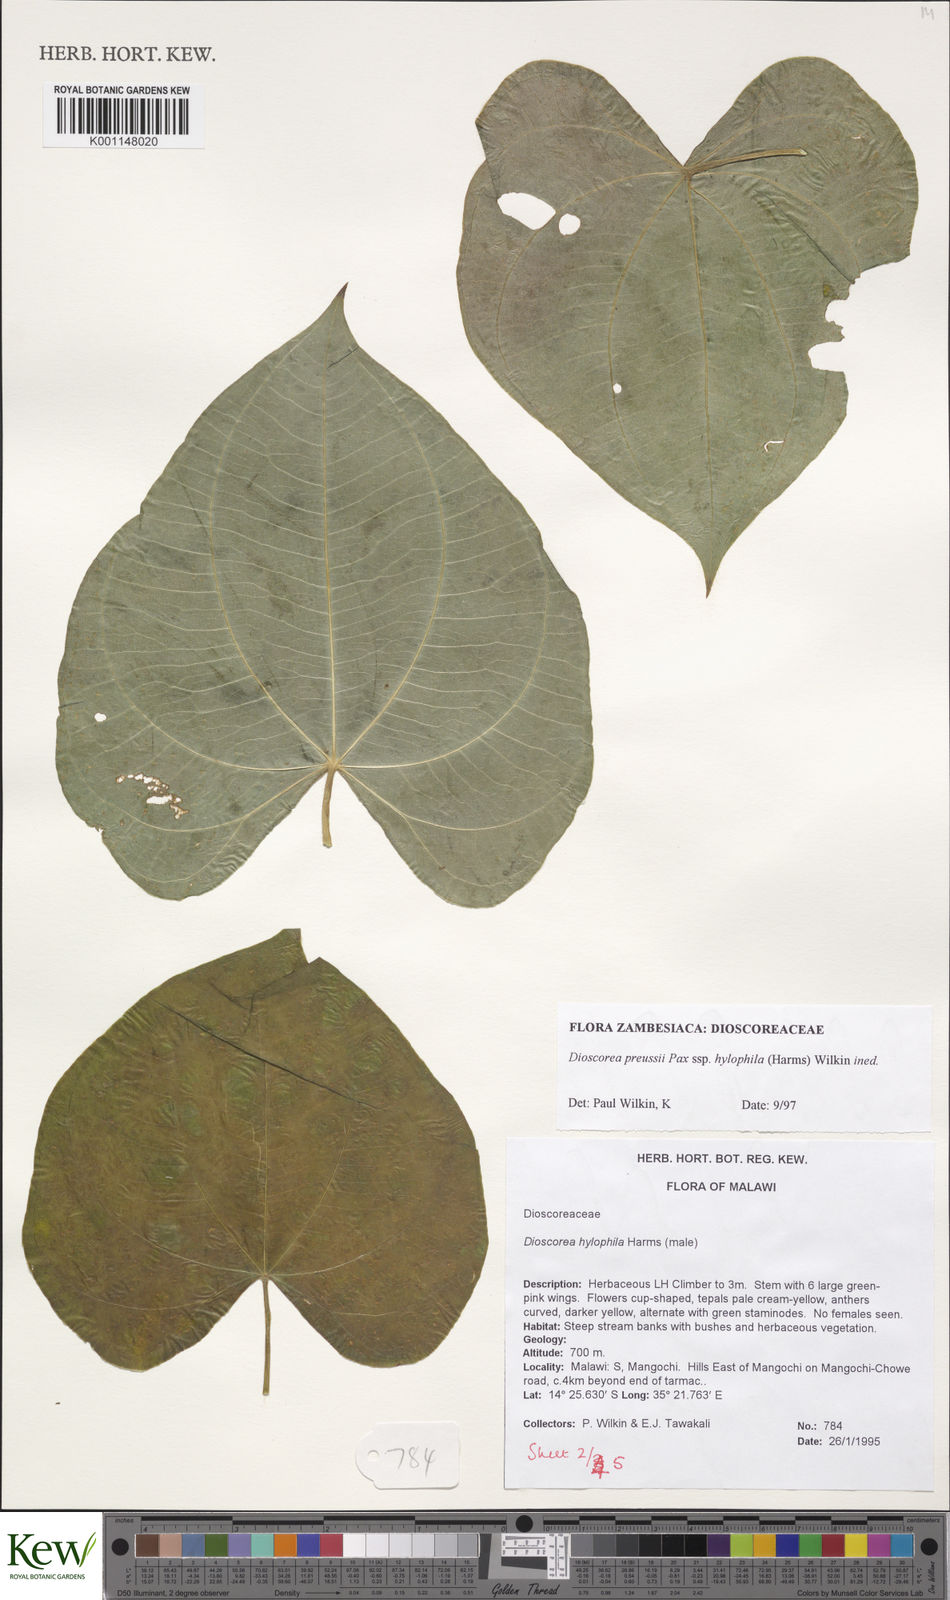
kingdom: Plantae
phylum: Tracheophyta
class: Liliopsida
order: Dioscoreales
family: Dioscoreaceae
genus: Dioscorea
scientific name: Dioscorea preussii
